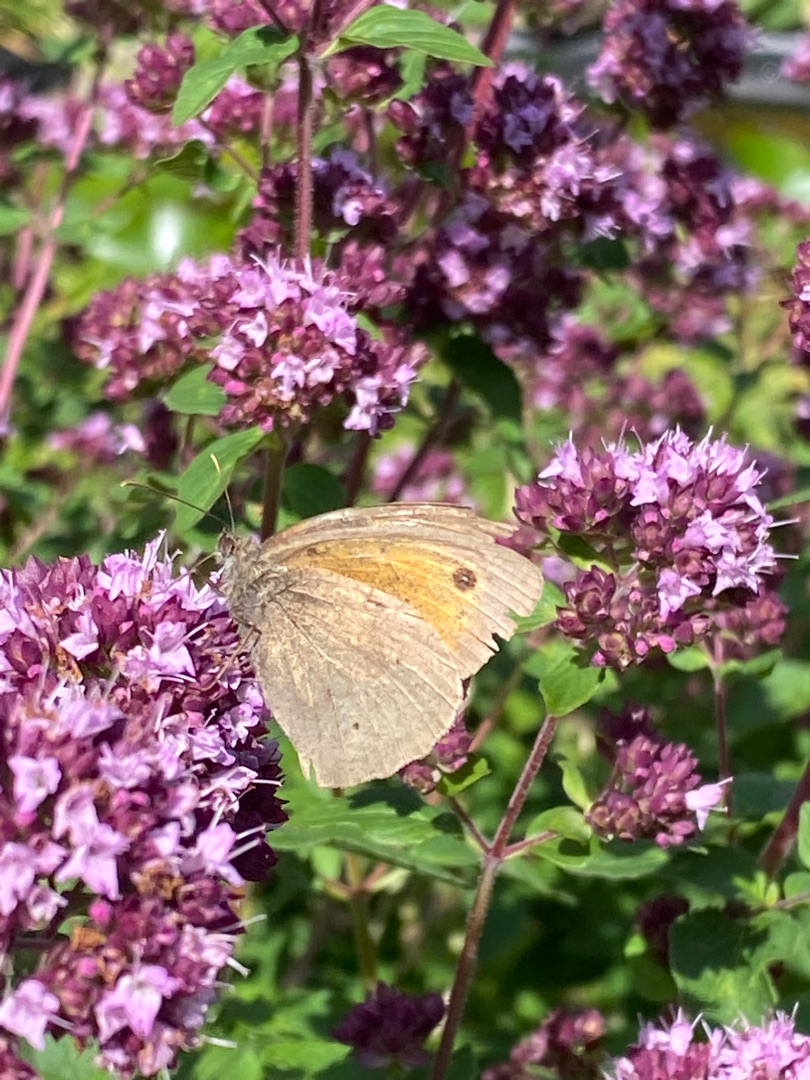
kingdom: Animalia
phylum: Arthropoda
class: Insecta
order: Lepidoptera
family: Nymphalidae
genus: Maniola
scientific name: Maniola jurtina
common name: Græsrandøje
